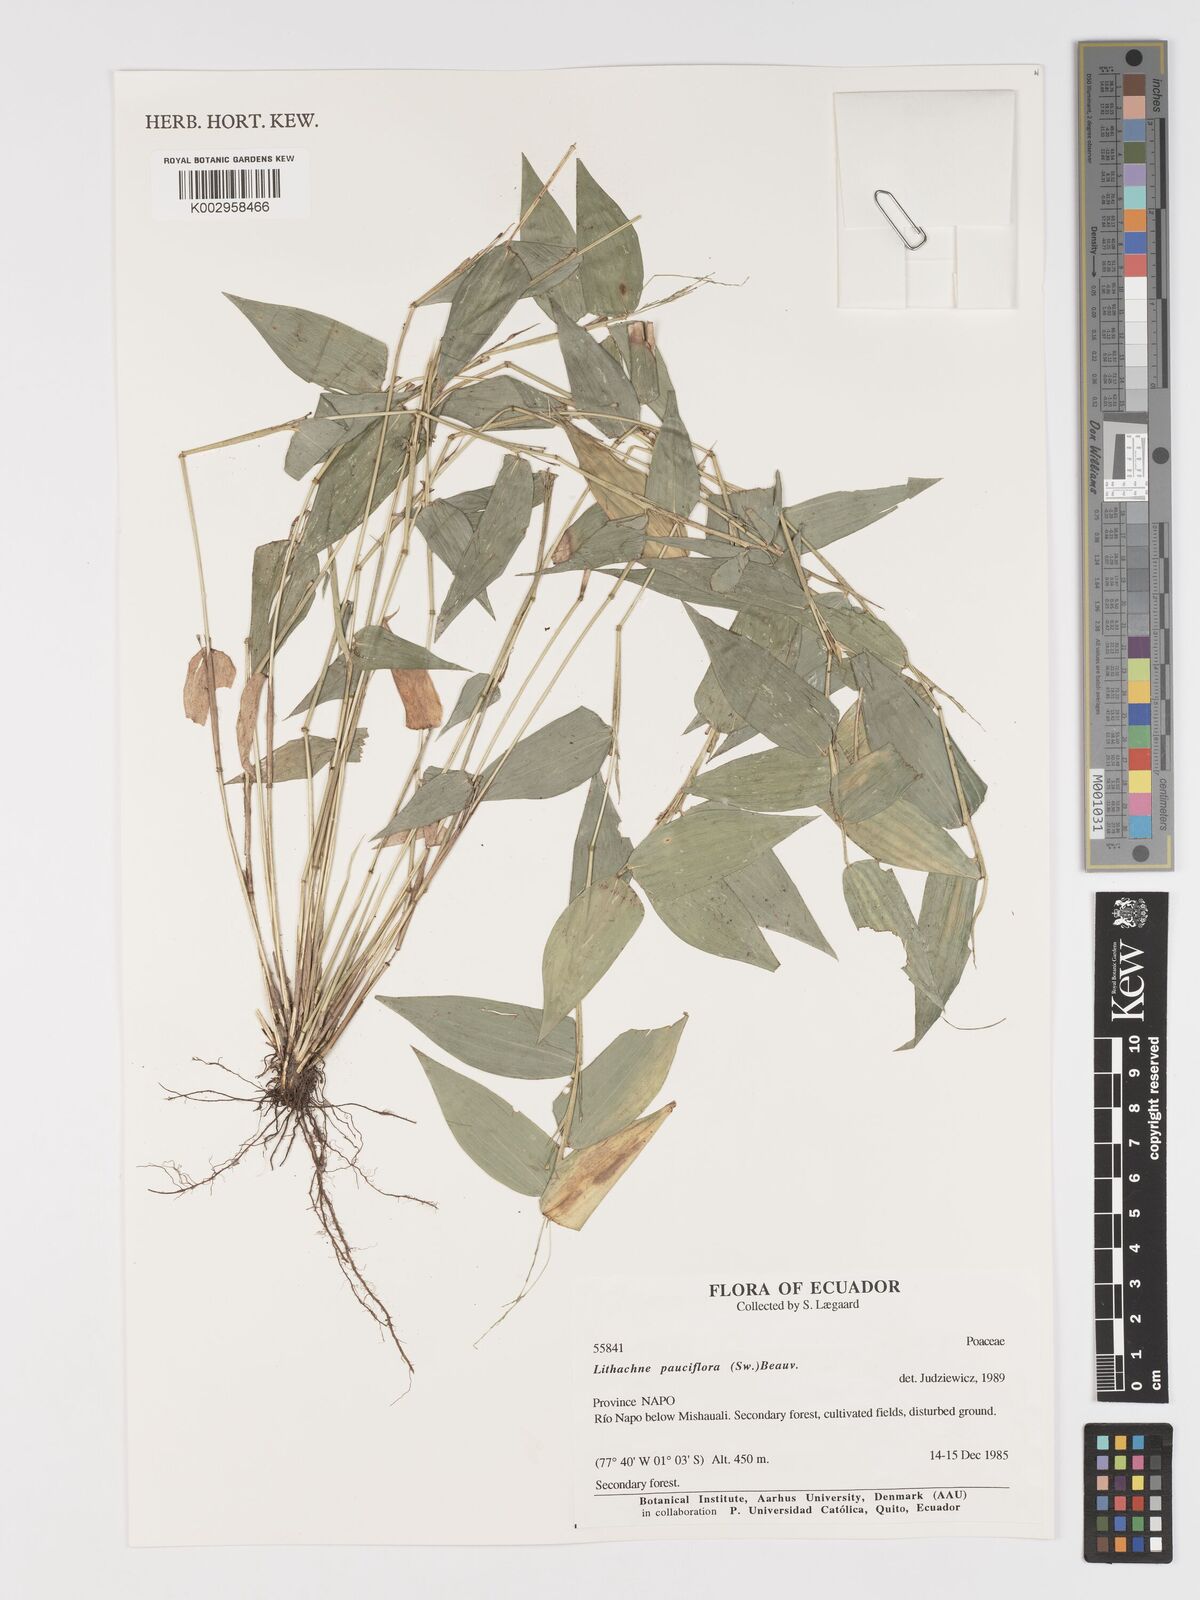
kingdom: Plantae
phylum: Tracheophyta
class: Liliopsida
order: Poales
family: Poaceae
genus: Lithachne
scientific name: Lithachne pauciflora
